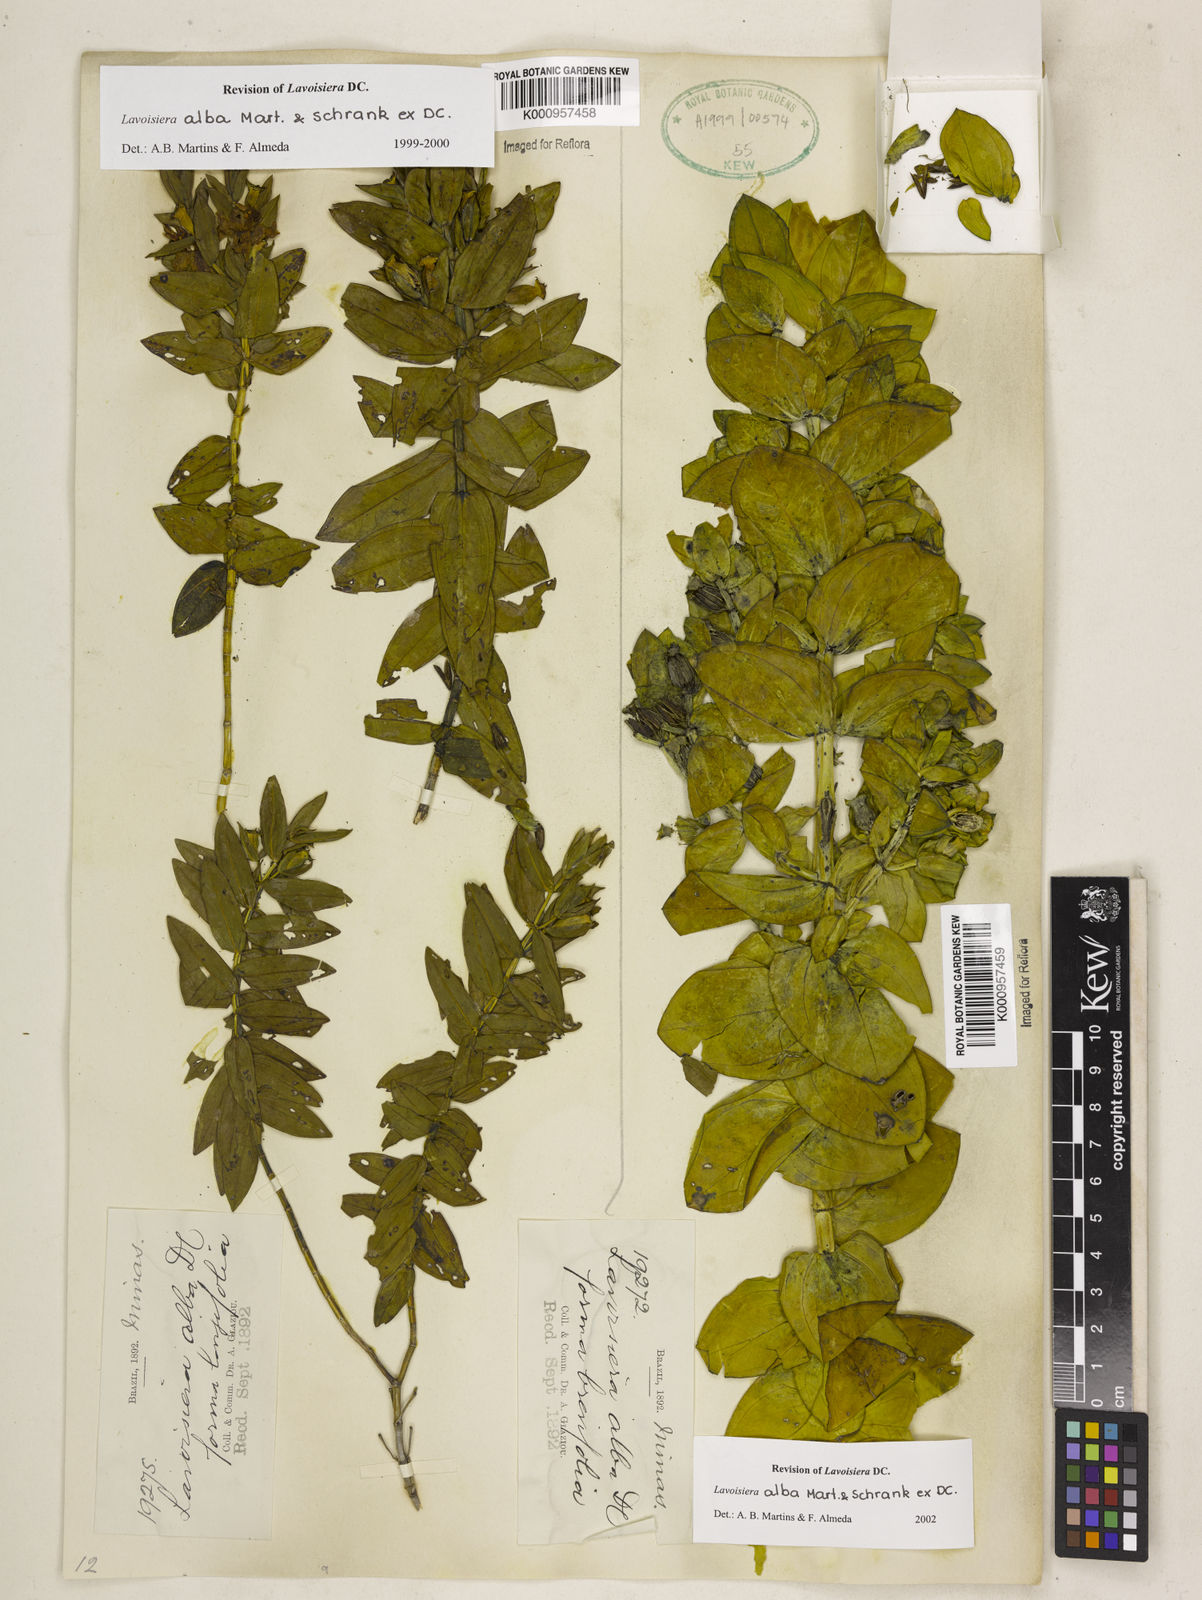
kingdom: Plantae
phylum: Tracheophyta
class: Magnoliopsida
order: Myrtales
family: Melastomataceae
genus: Microlicia
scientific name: Microlicia alba
